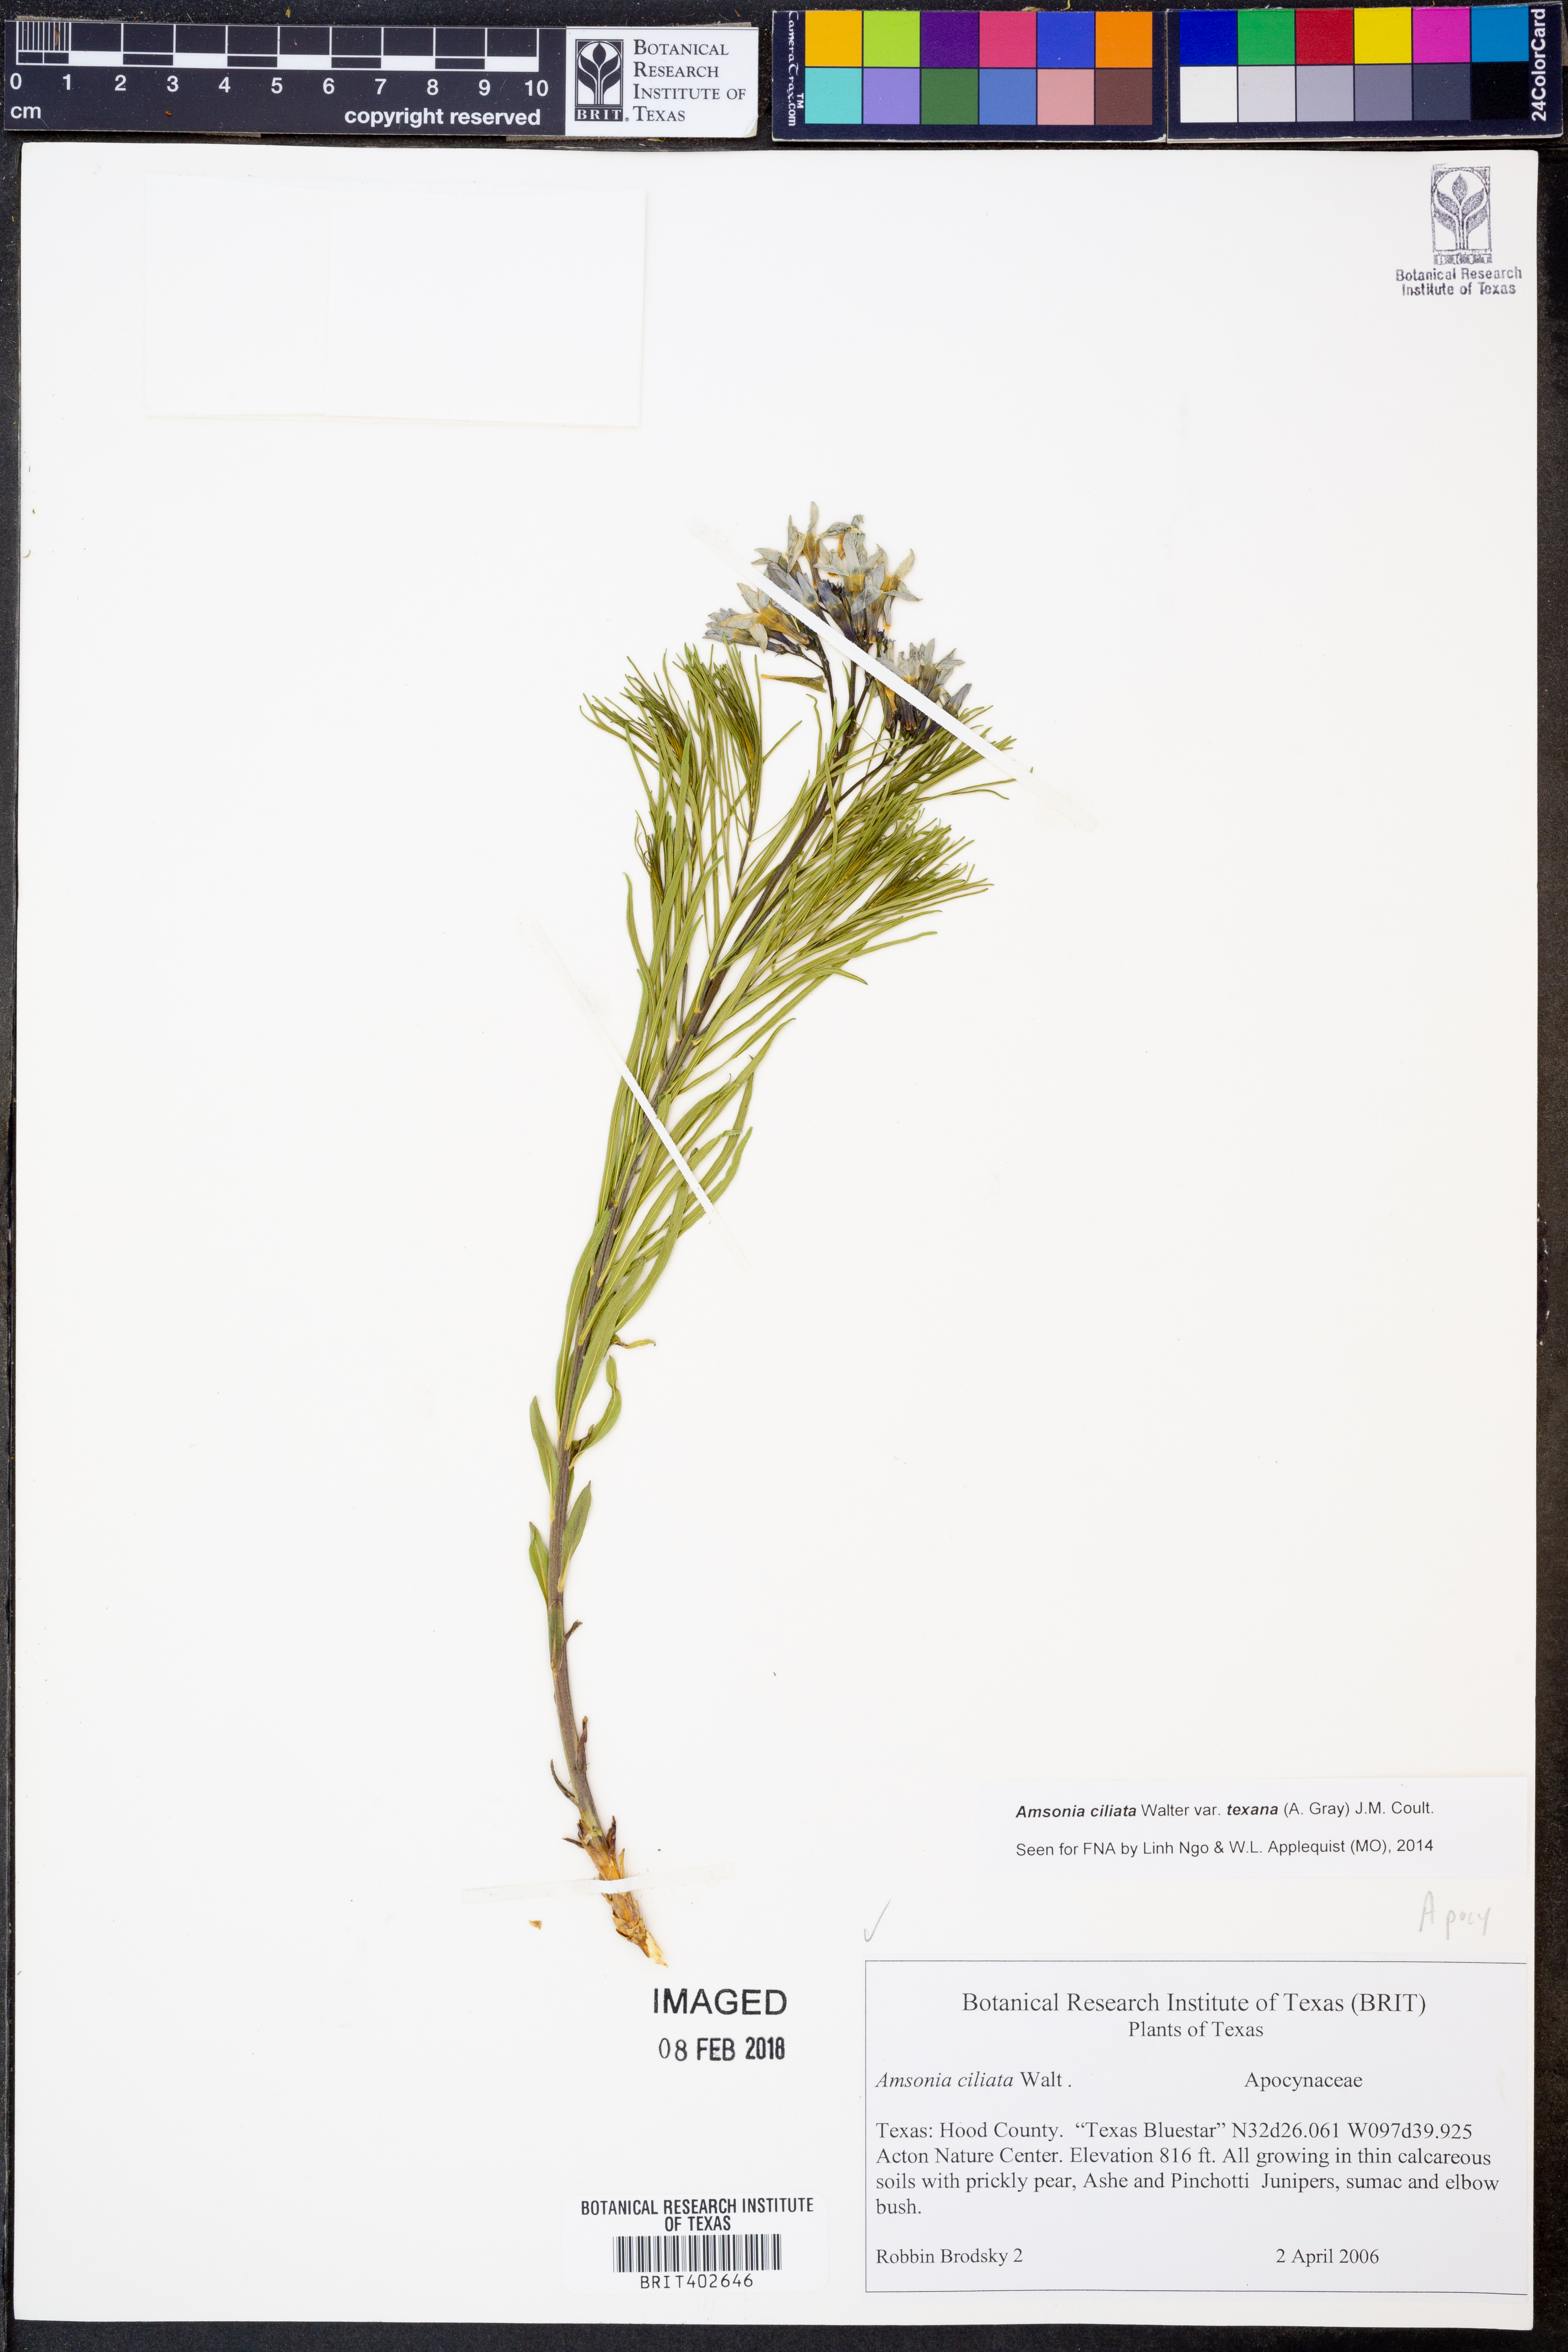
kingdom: Plantae
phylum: Tracheophyta
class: Magnoliopsida
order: Gentianales
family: Apocynaceae
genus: Amsonia
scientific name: Amsonia ciliata
